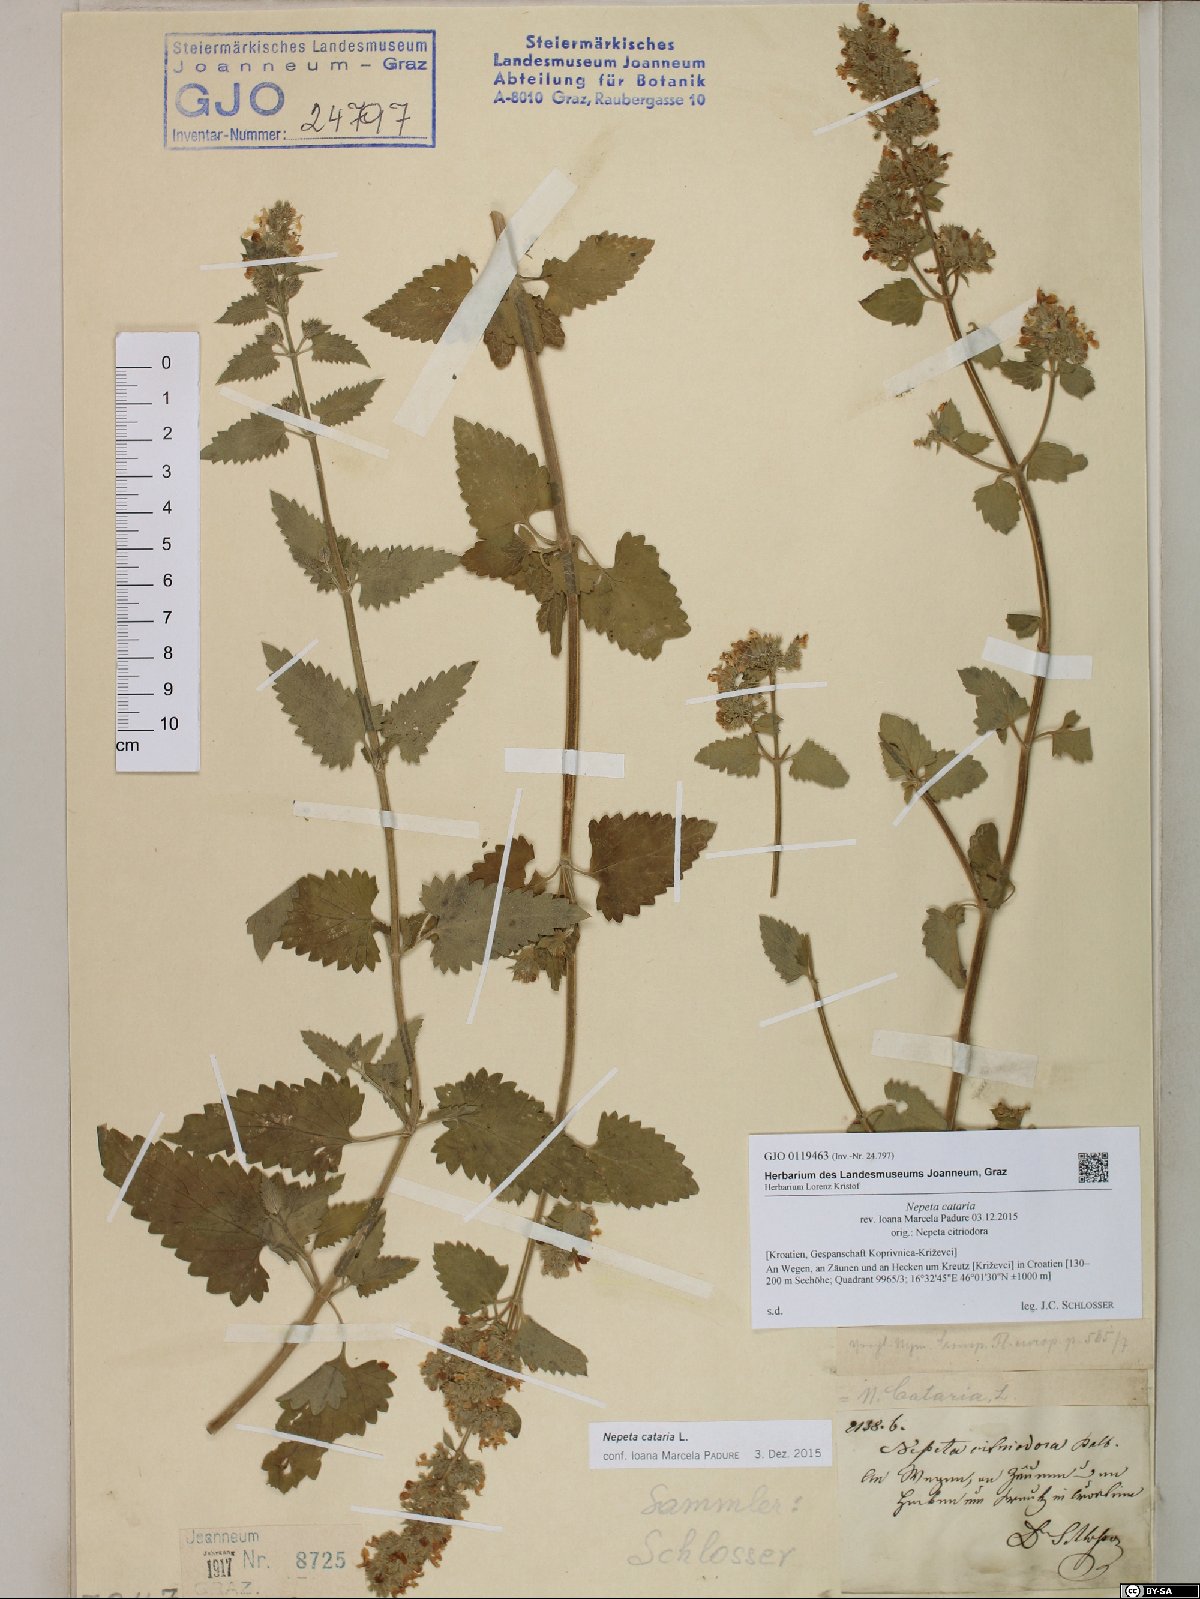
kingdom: Plantae
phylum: Tracheophyta
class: Magnoliopsida
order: Lamiales
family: Lamiaceae
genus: Nepeta
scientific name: Nepeta cataria
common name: Catnip
